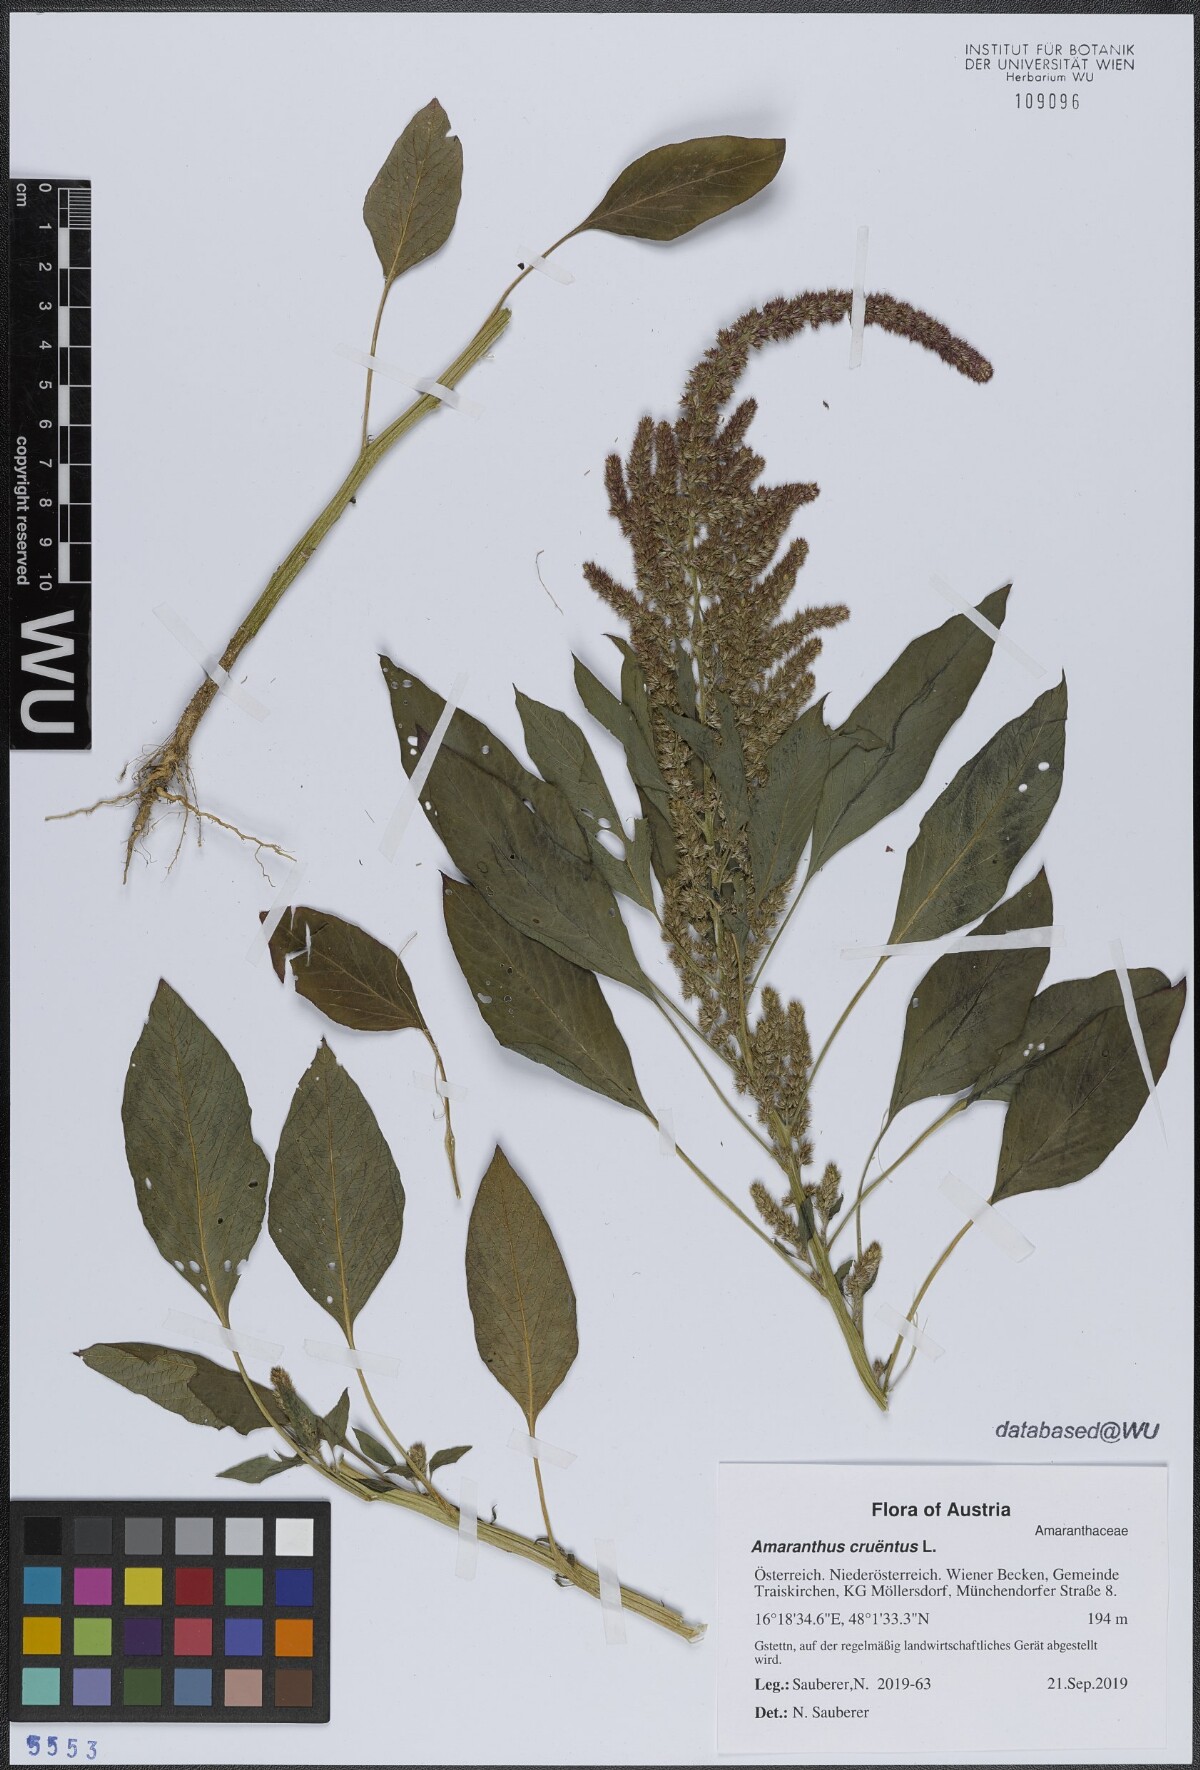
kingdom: Plantae
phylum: Tracheophyta
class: Magnoliopsida
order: Caryophyllales
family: Amaranthaceae
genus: Amaranthus
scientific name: Amaranthus cruentus
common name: Purple amaranth
